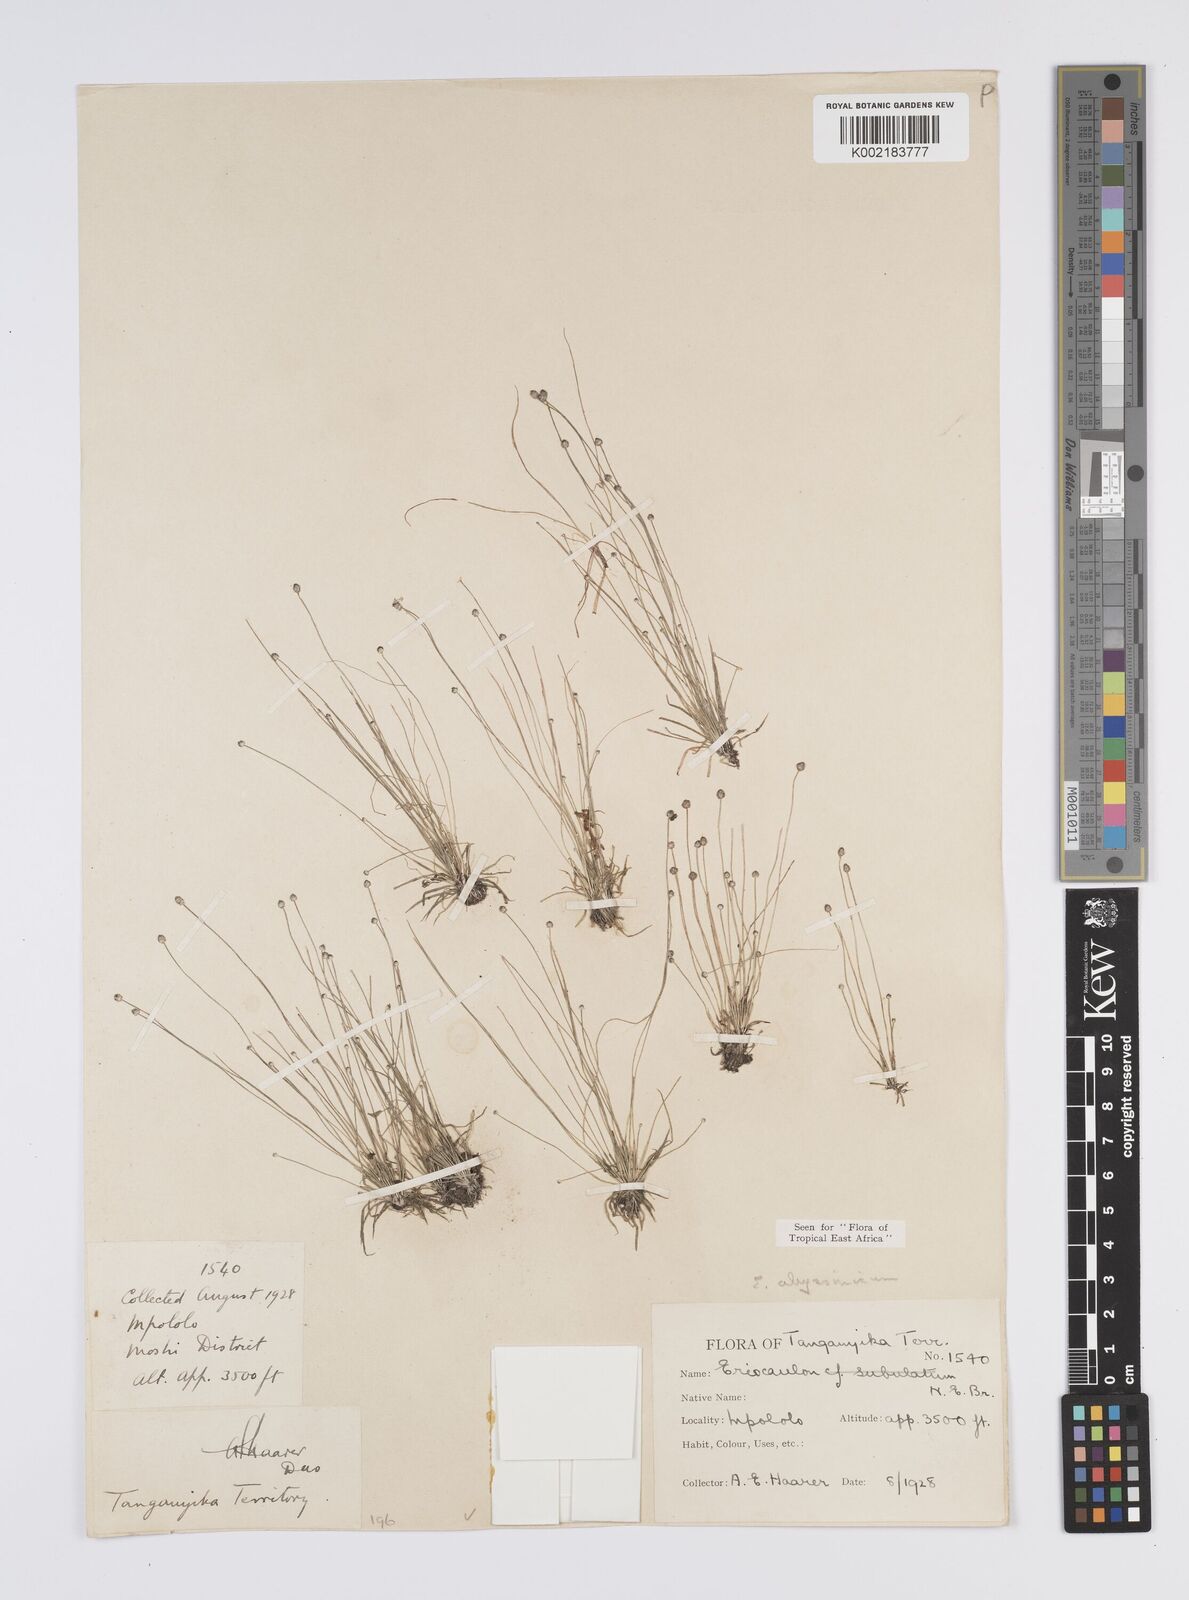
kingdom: Plantae
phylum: Tracheophyta
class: Liliopsida
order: Poales
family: Eriocaulaceae
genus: Eriocaulon
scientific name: Eriocaulon abyssinicum
